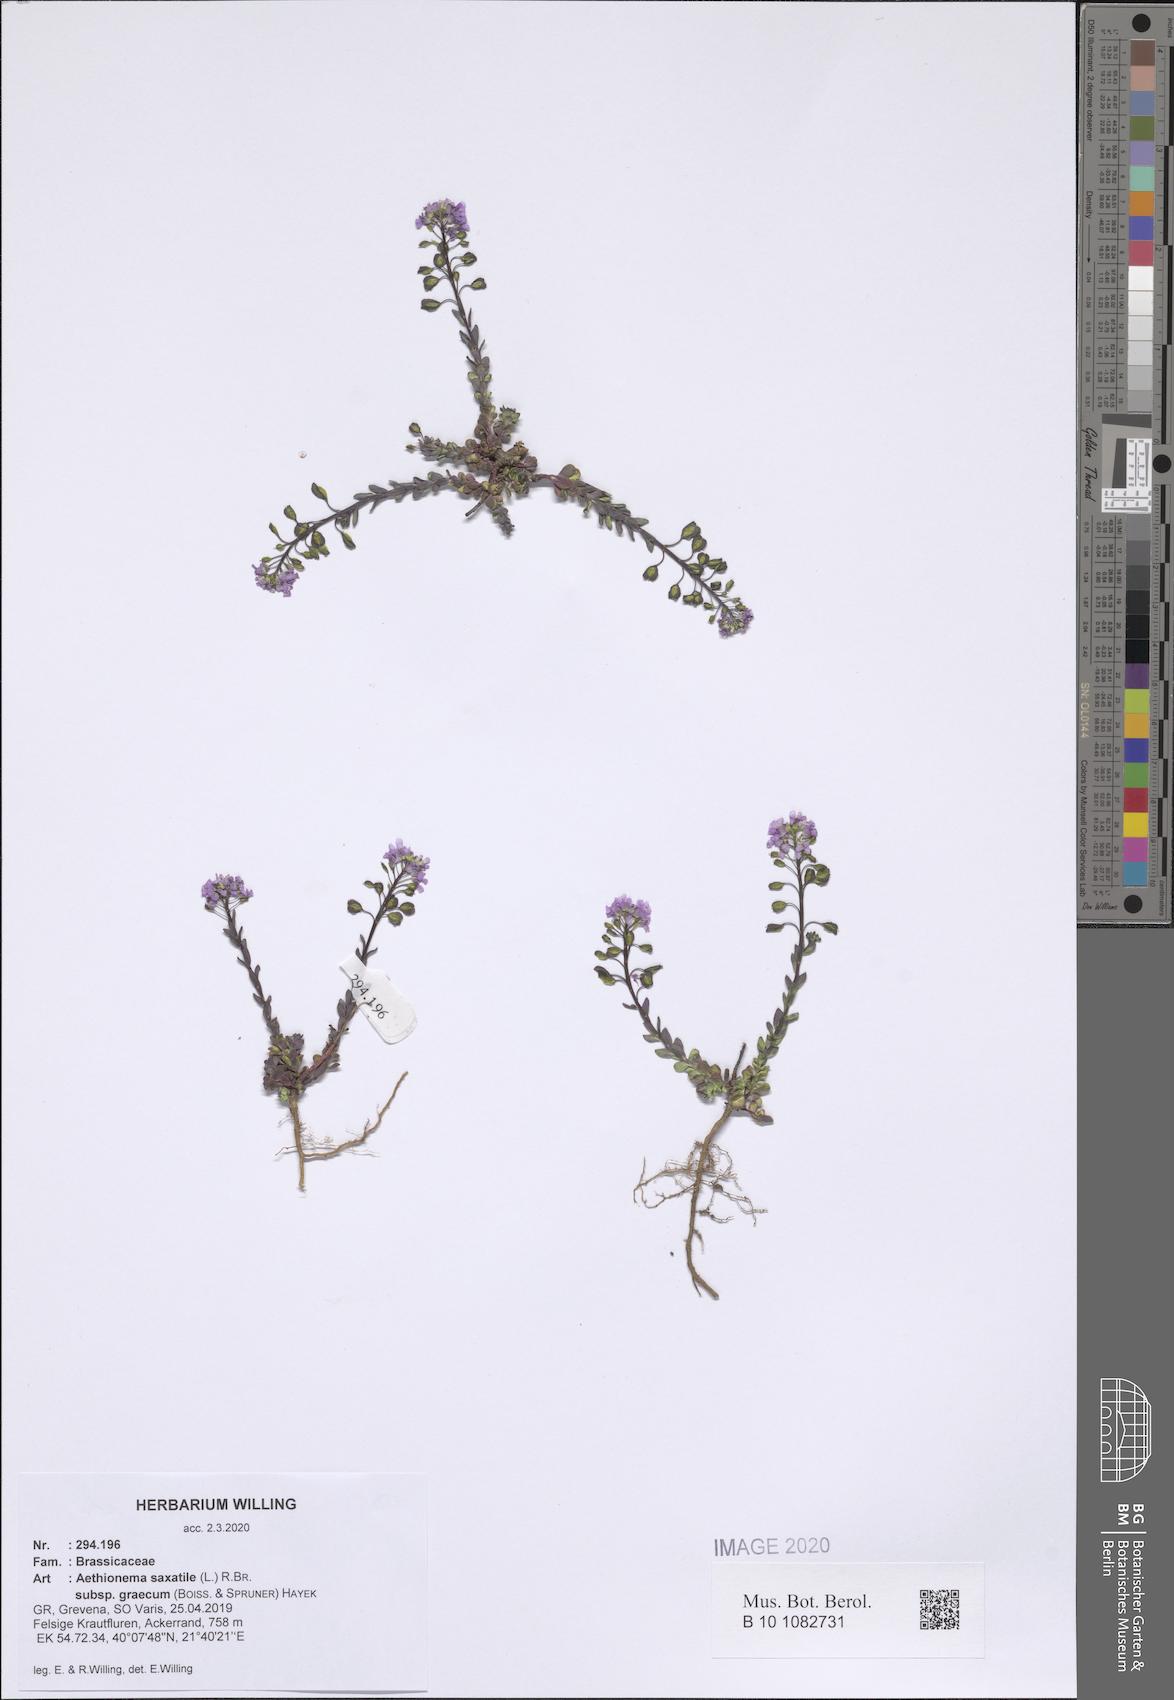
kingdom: Plantae
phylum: Tracheophyta
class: Magnoliopsida
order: Brassicales
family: Brassicaceae
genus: Aethionema
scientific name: Aethionema saxatile
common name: Burnt candytuft
